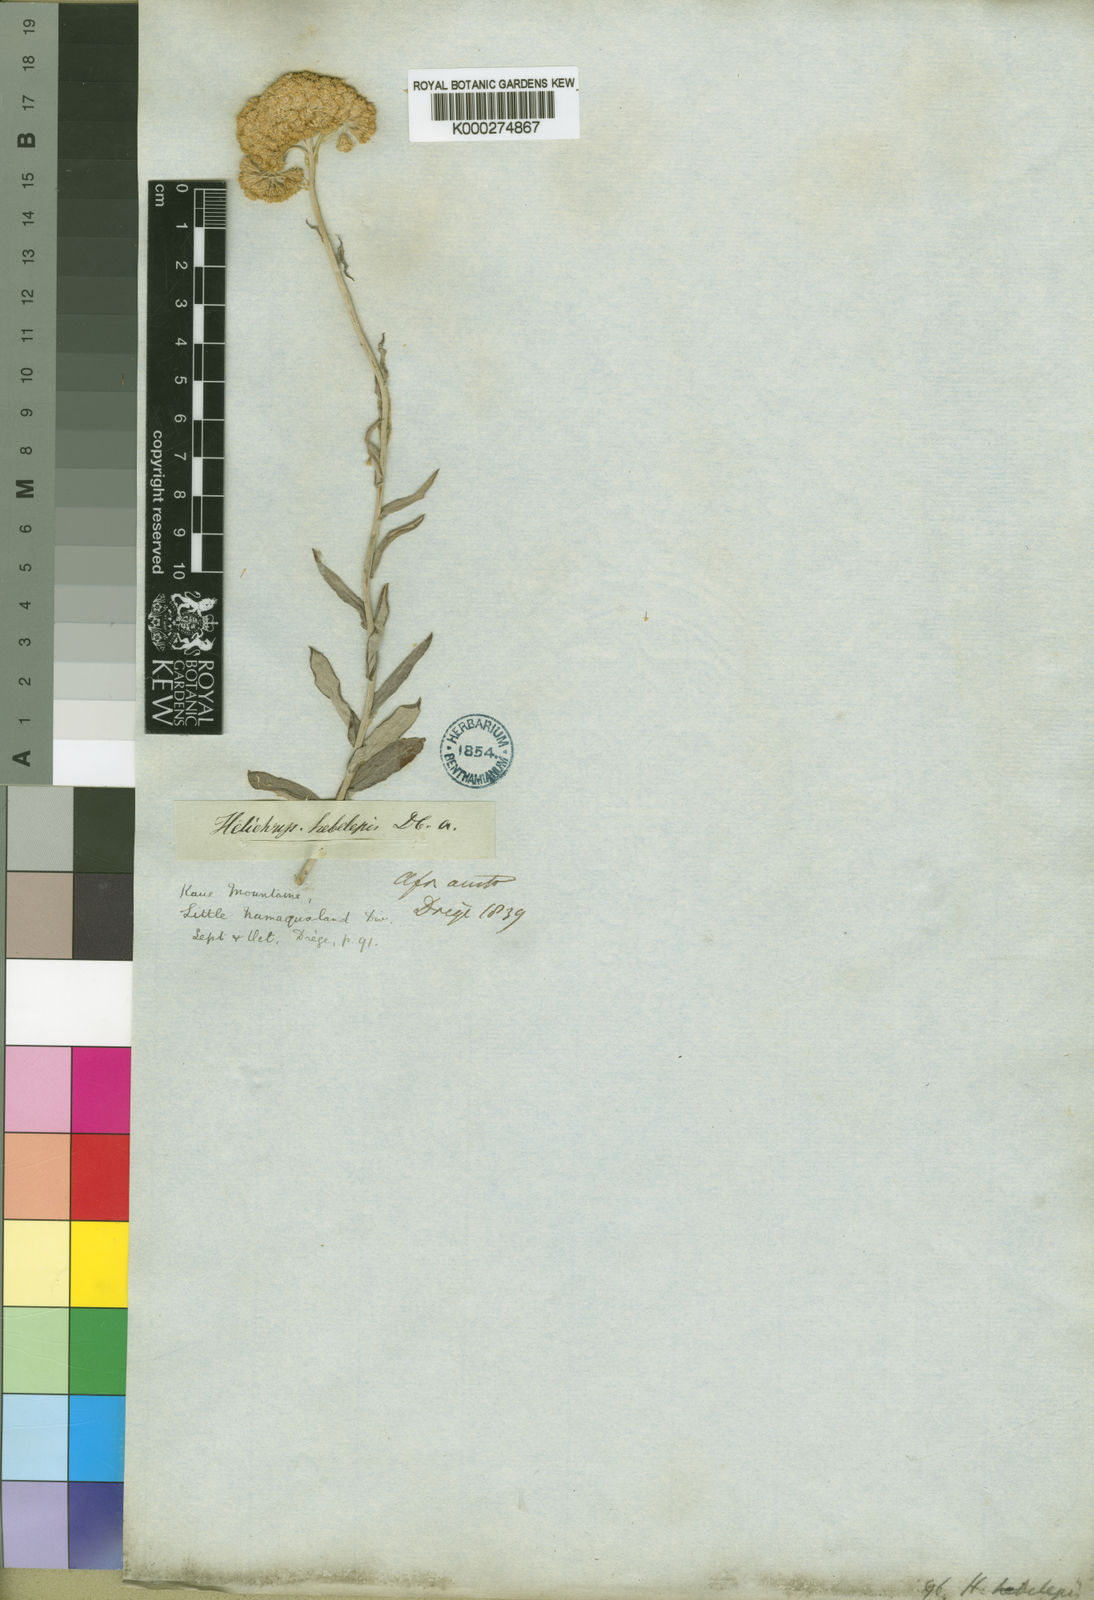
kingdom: Plantae
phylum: Tracheophyta
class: Magnoliopsida
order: Asterales
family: Asteraceae
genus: Helichrysum
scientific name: Helichrysum hebelepis
